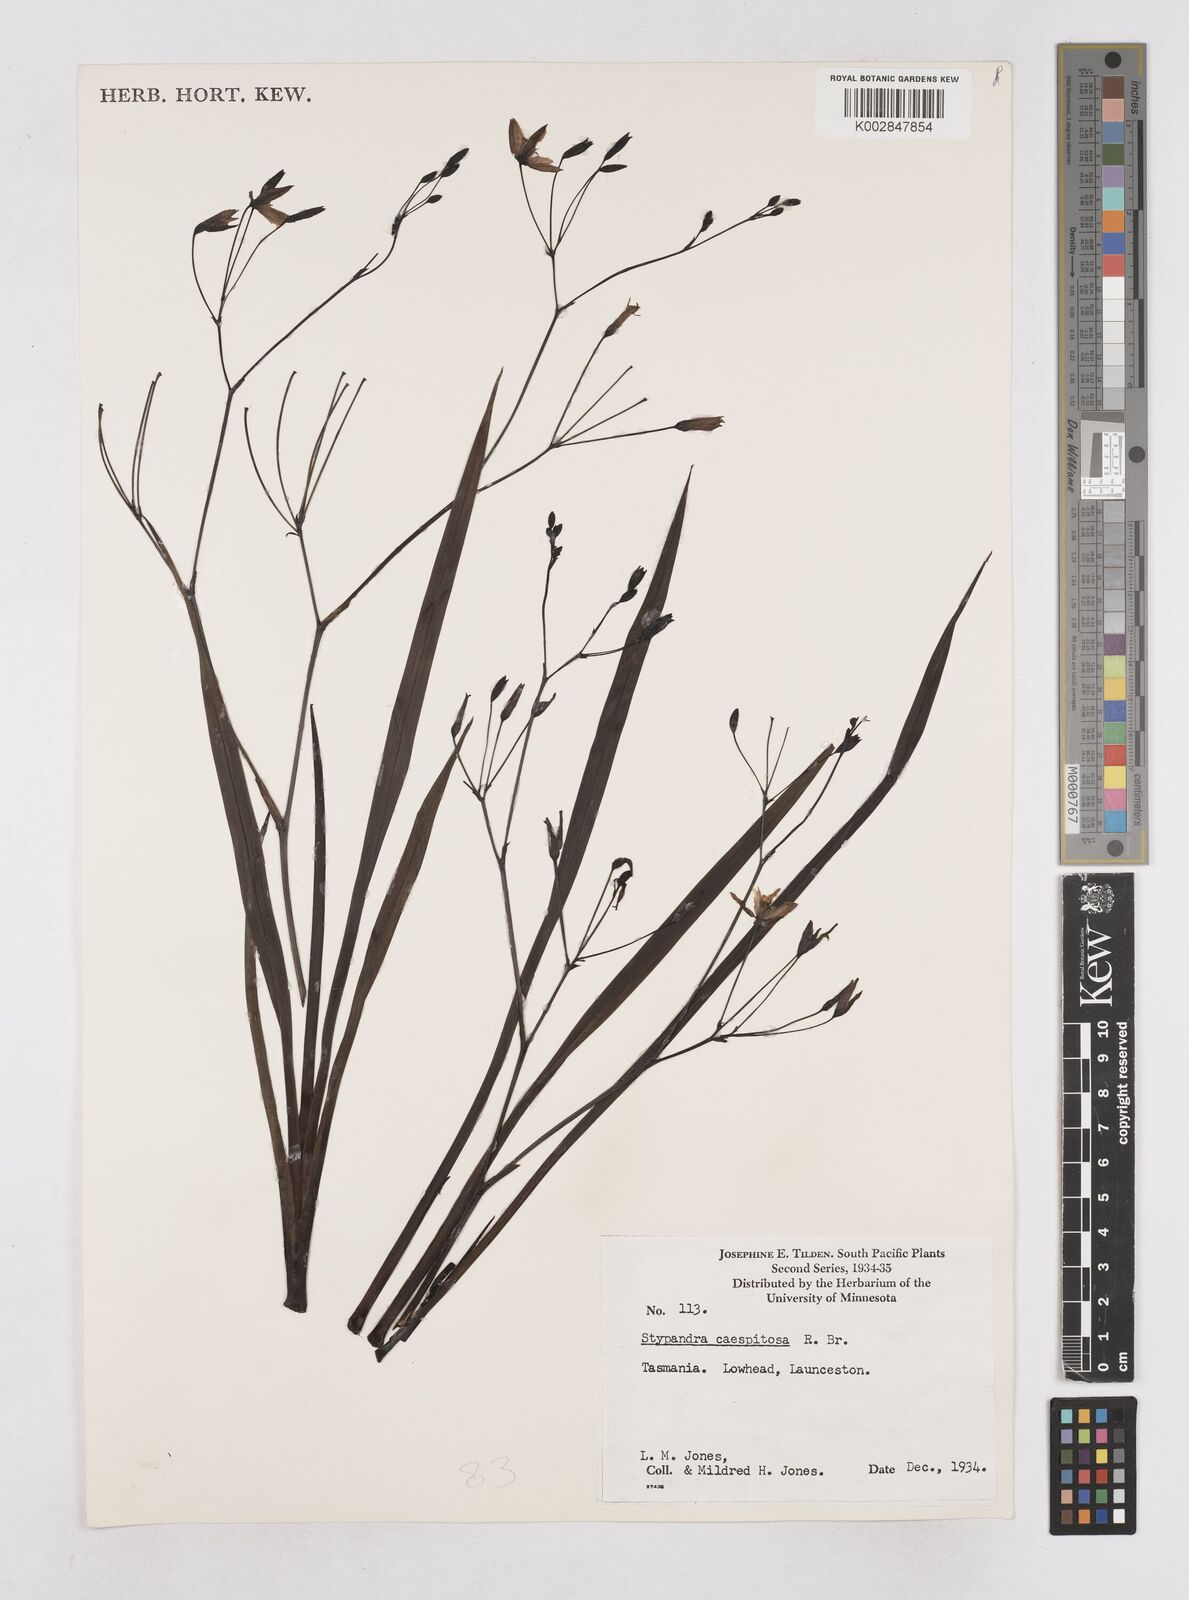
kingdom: Plantae
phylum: Tracheophyta
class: Liliopsida
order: Asparagales
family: Asphodelaceae
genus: Thelionema
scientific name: Thelionema caespitosum
